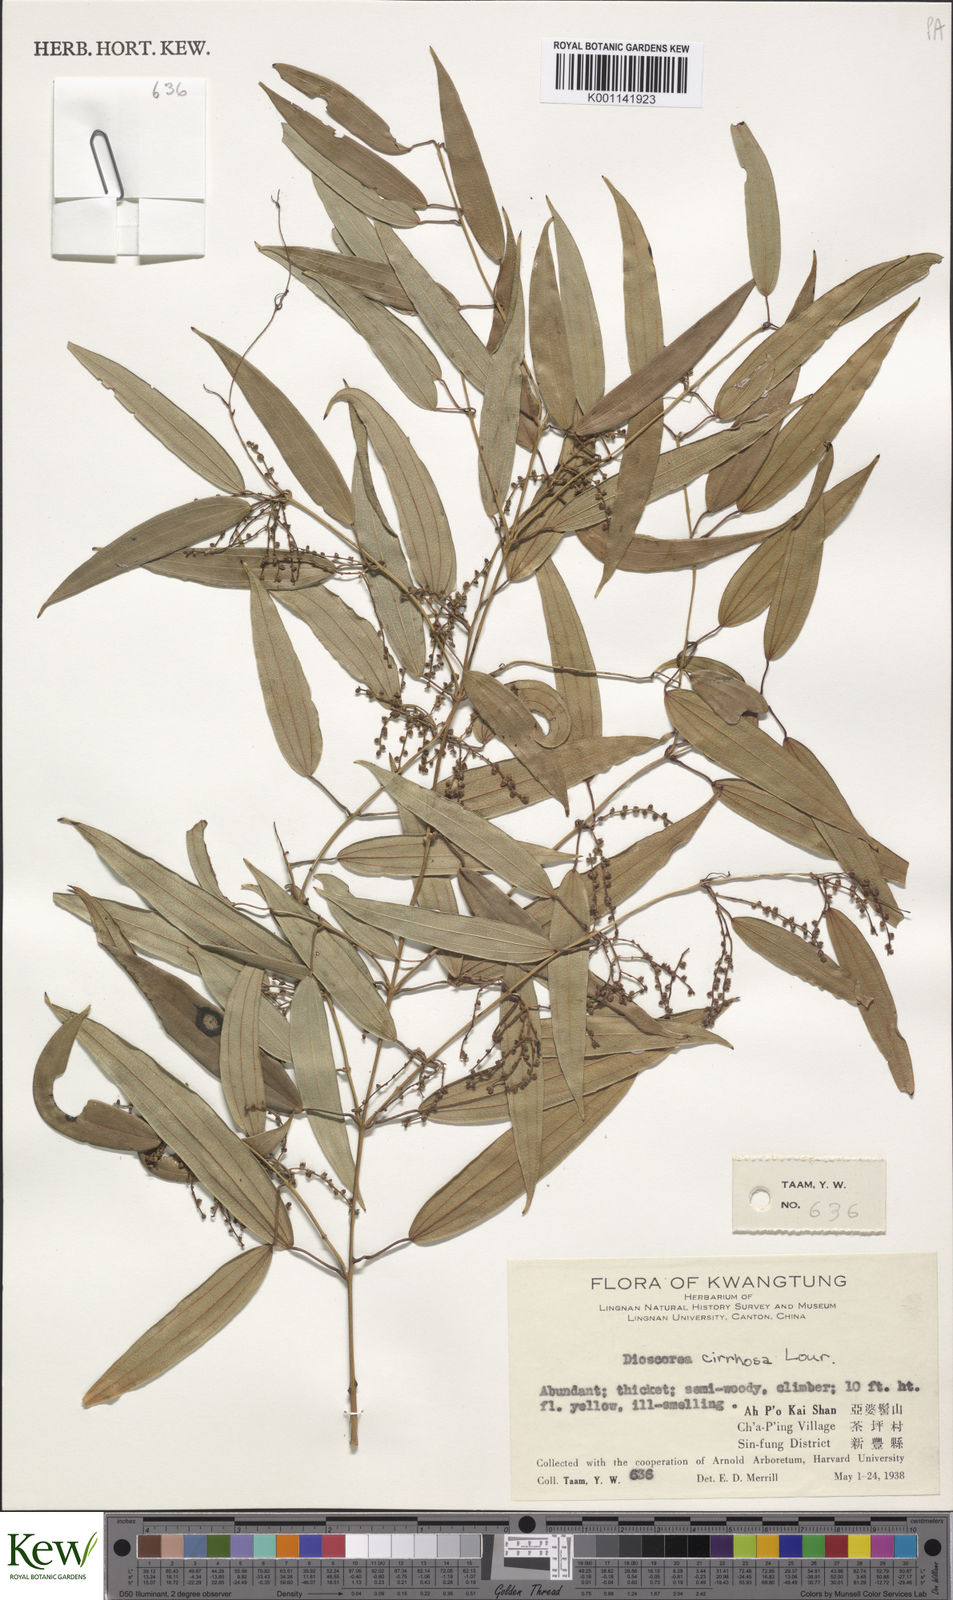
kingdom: Plantae
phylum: Tracheophyta
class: Liliopsida
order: Dioscoreales
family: Dioscoreaceae
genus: Dioscorea
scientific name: Dioscorea cirrhosa
